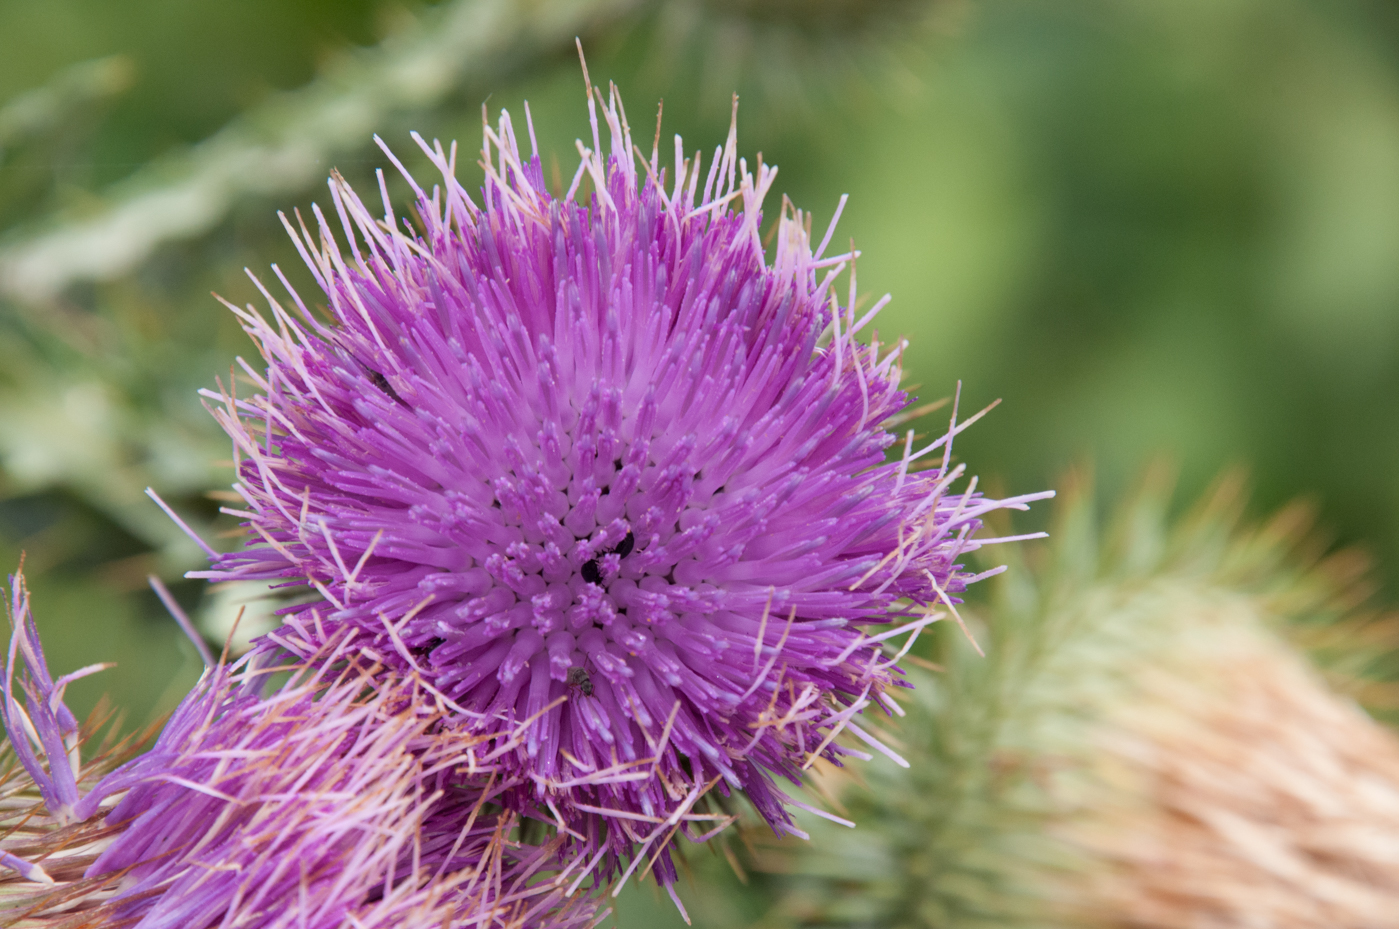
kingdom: Plantae
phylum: Tracheophyta
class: Magnoliopsida
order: Asterales
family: Asteraceae
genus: Onopordum
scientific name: Onopordum acanthium
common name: Scotch thistle
